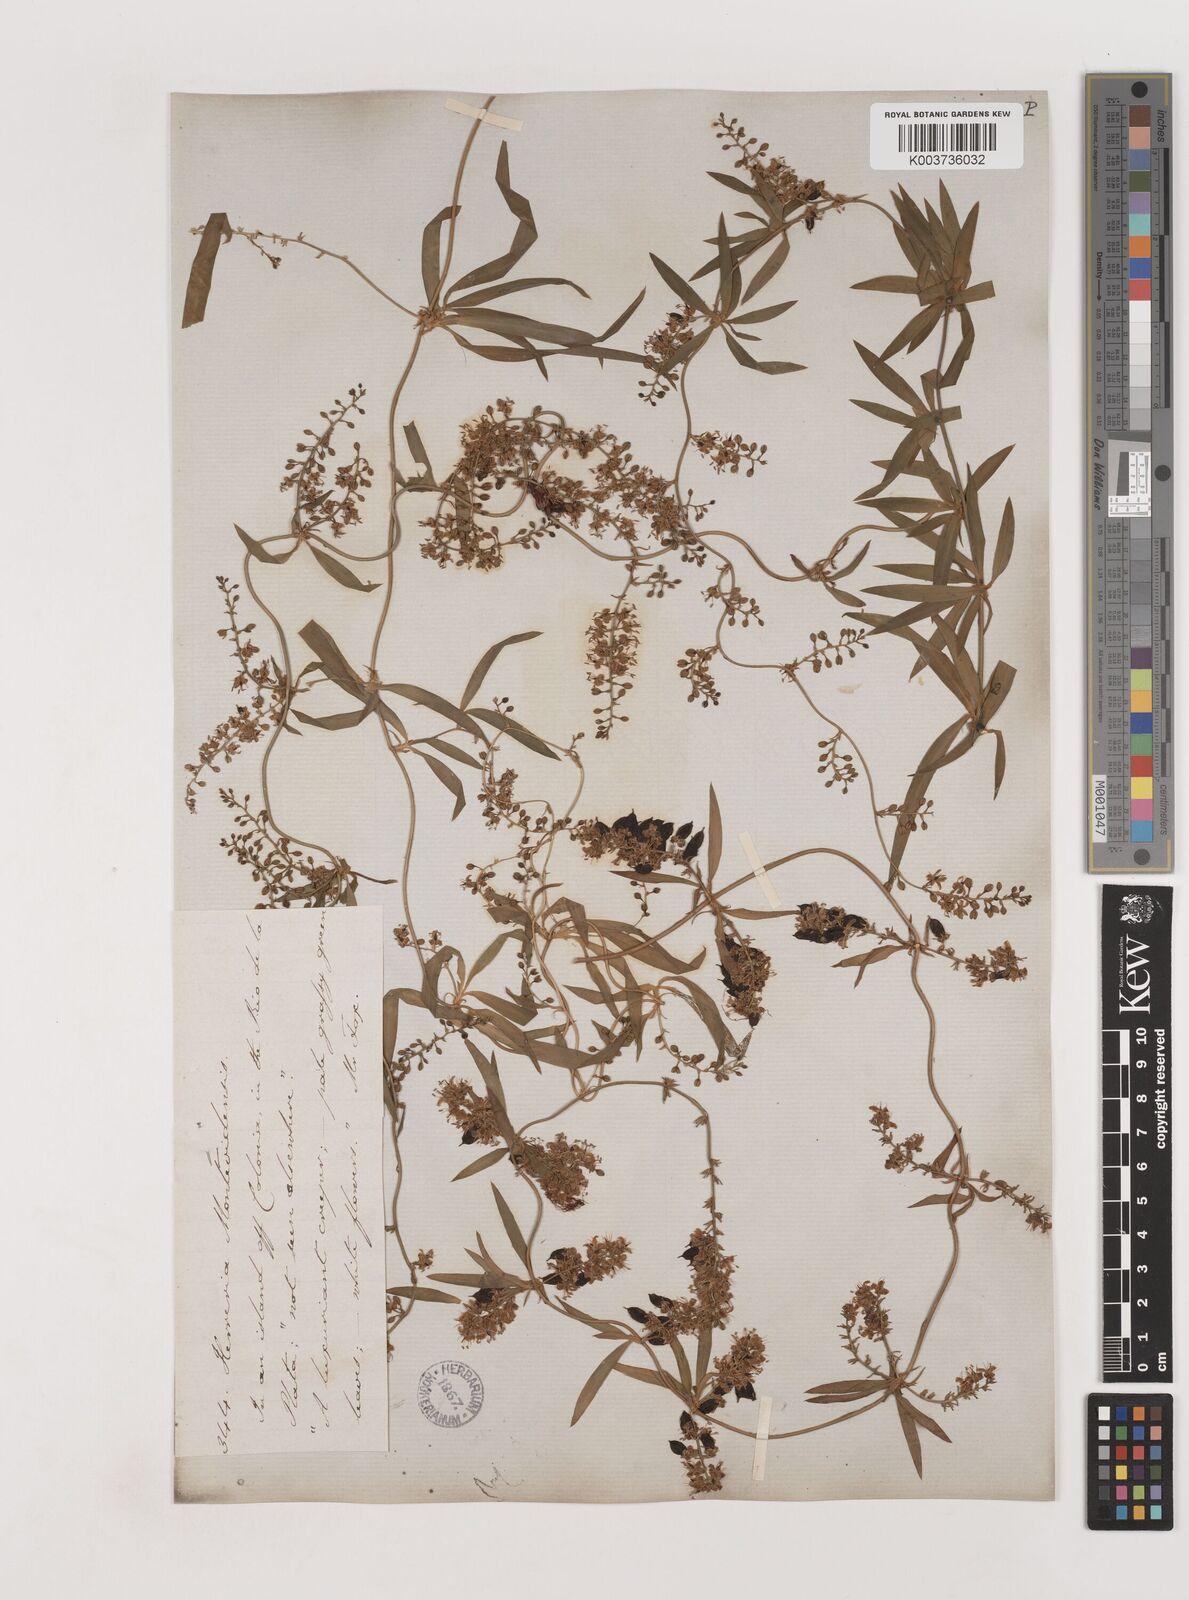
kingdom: Plantae
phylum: Tracheophyta
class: Liliopsida
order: Asparagales
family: Asparagaceae
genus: Herreria
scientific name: Herreria montevidensis
